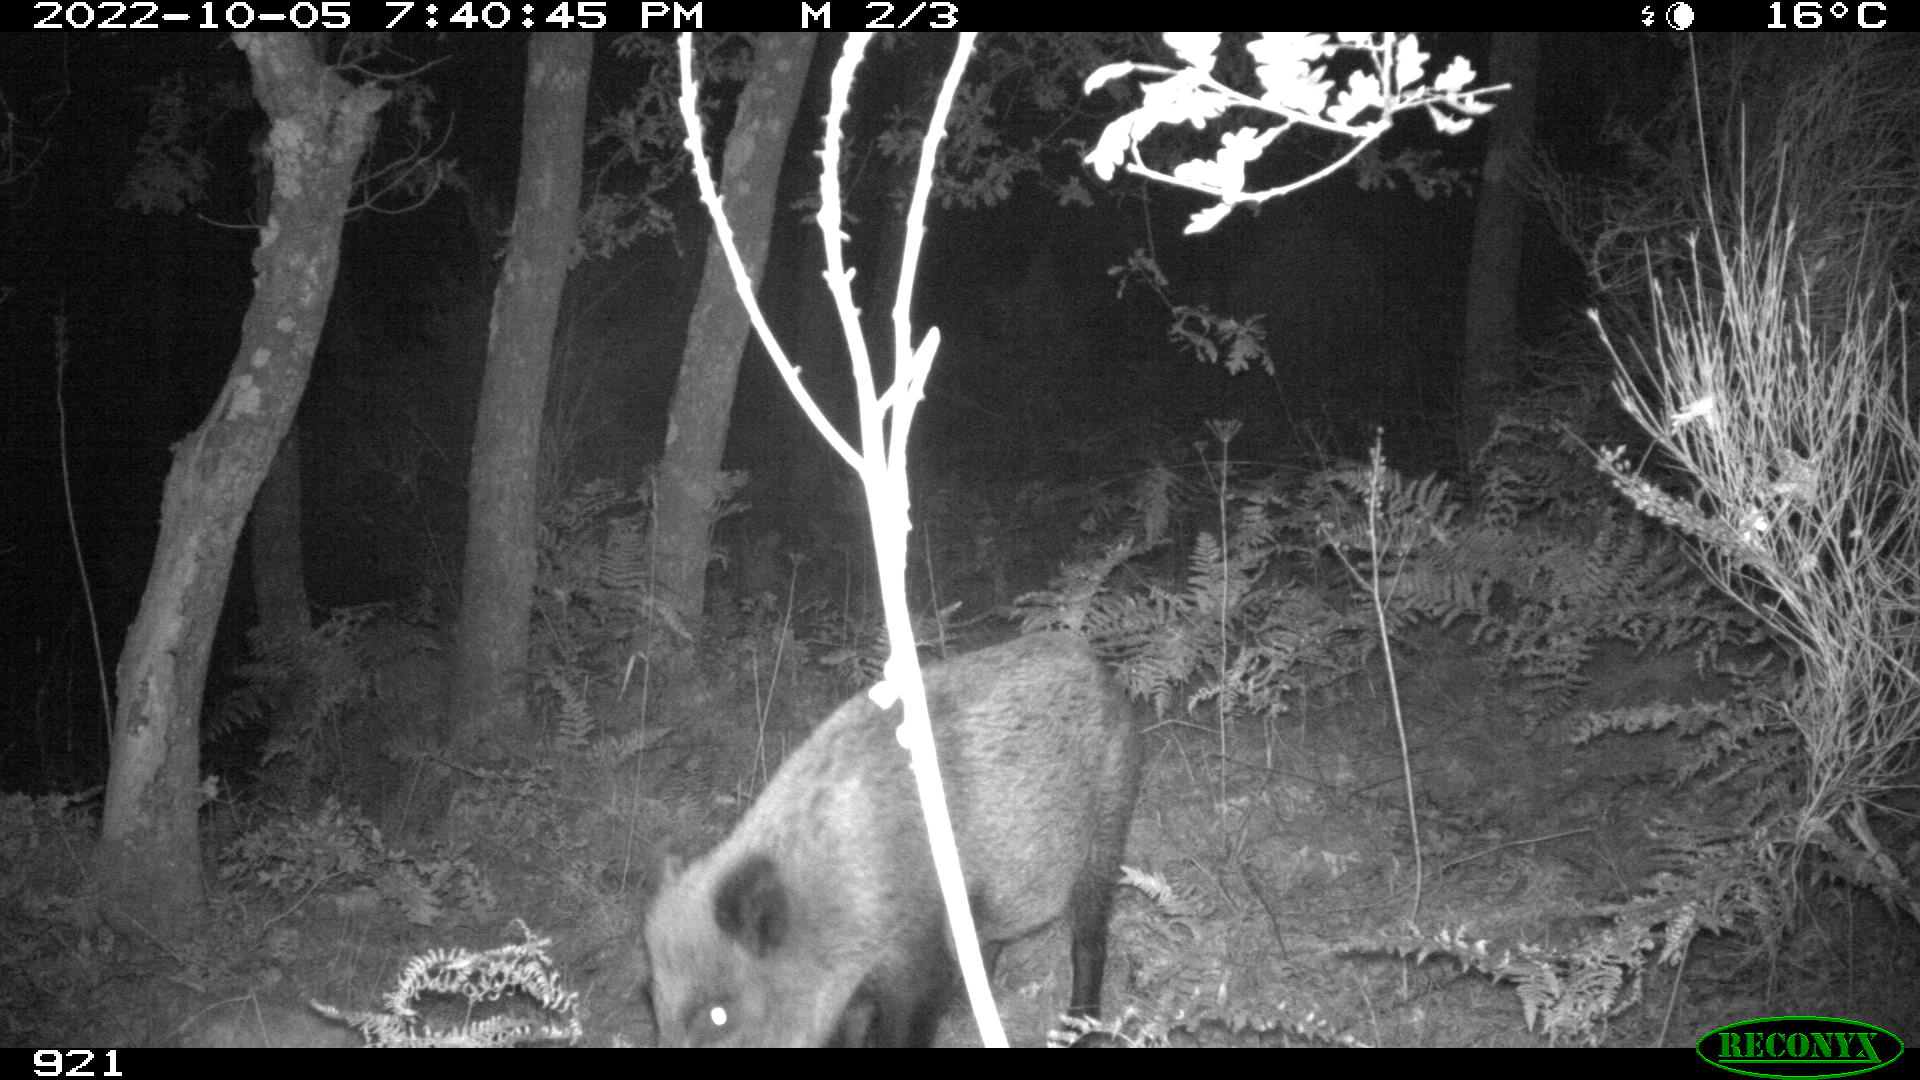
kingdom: Animalia
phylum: Chordata
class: Mammalia
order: Artiodactyla
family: Suidae
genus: Sus
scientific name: Sus scrofa
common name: Wild boar
